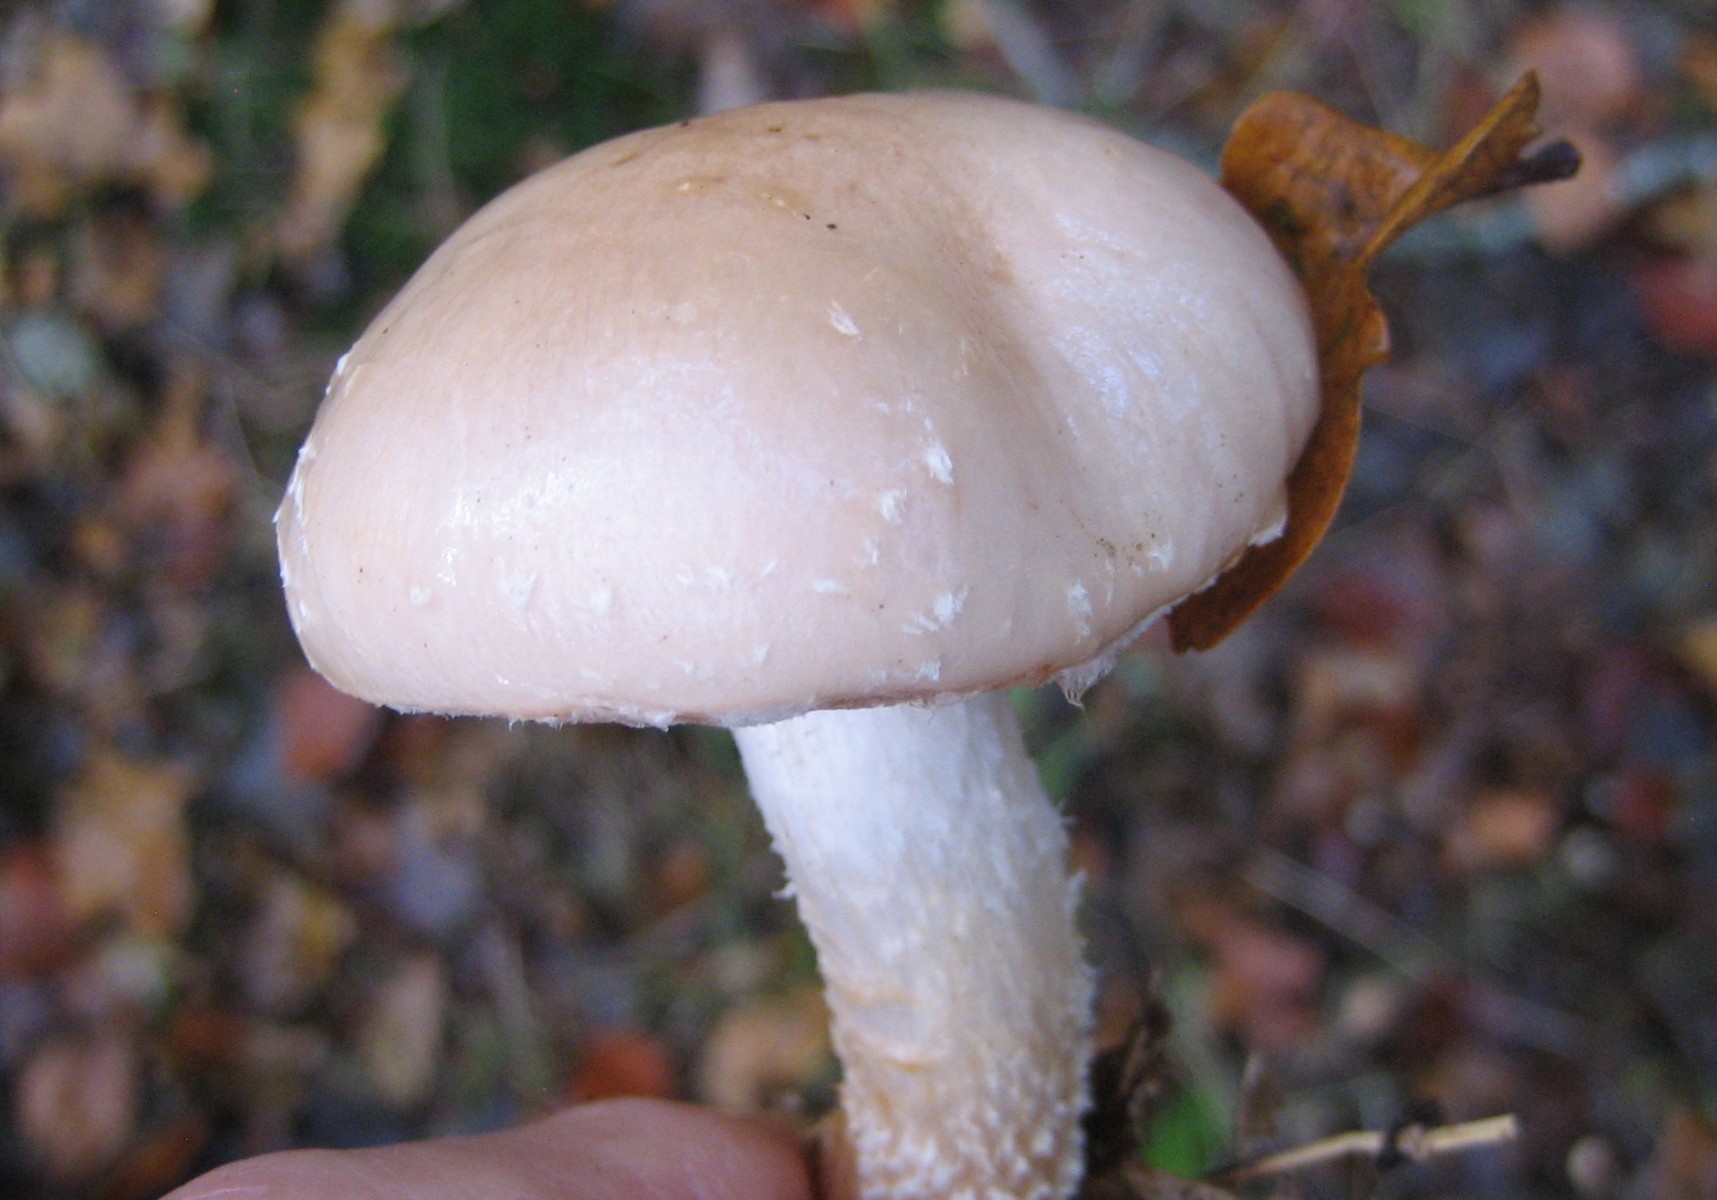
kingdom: Fungi
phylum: Basidiomycota
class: Agaricomycetes
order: Agaricales
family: Strophariaceae
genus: Pholiota
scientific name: Pholiota lenta
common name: løv-skælhat
